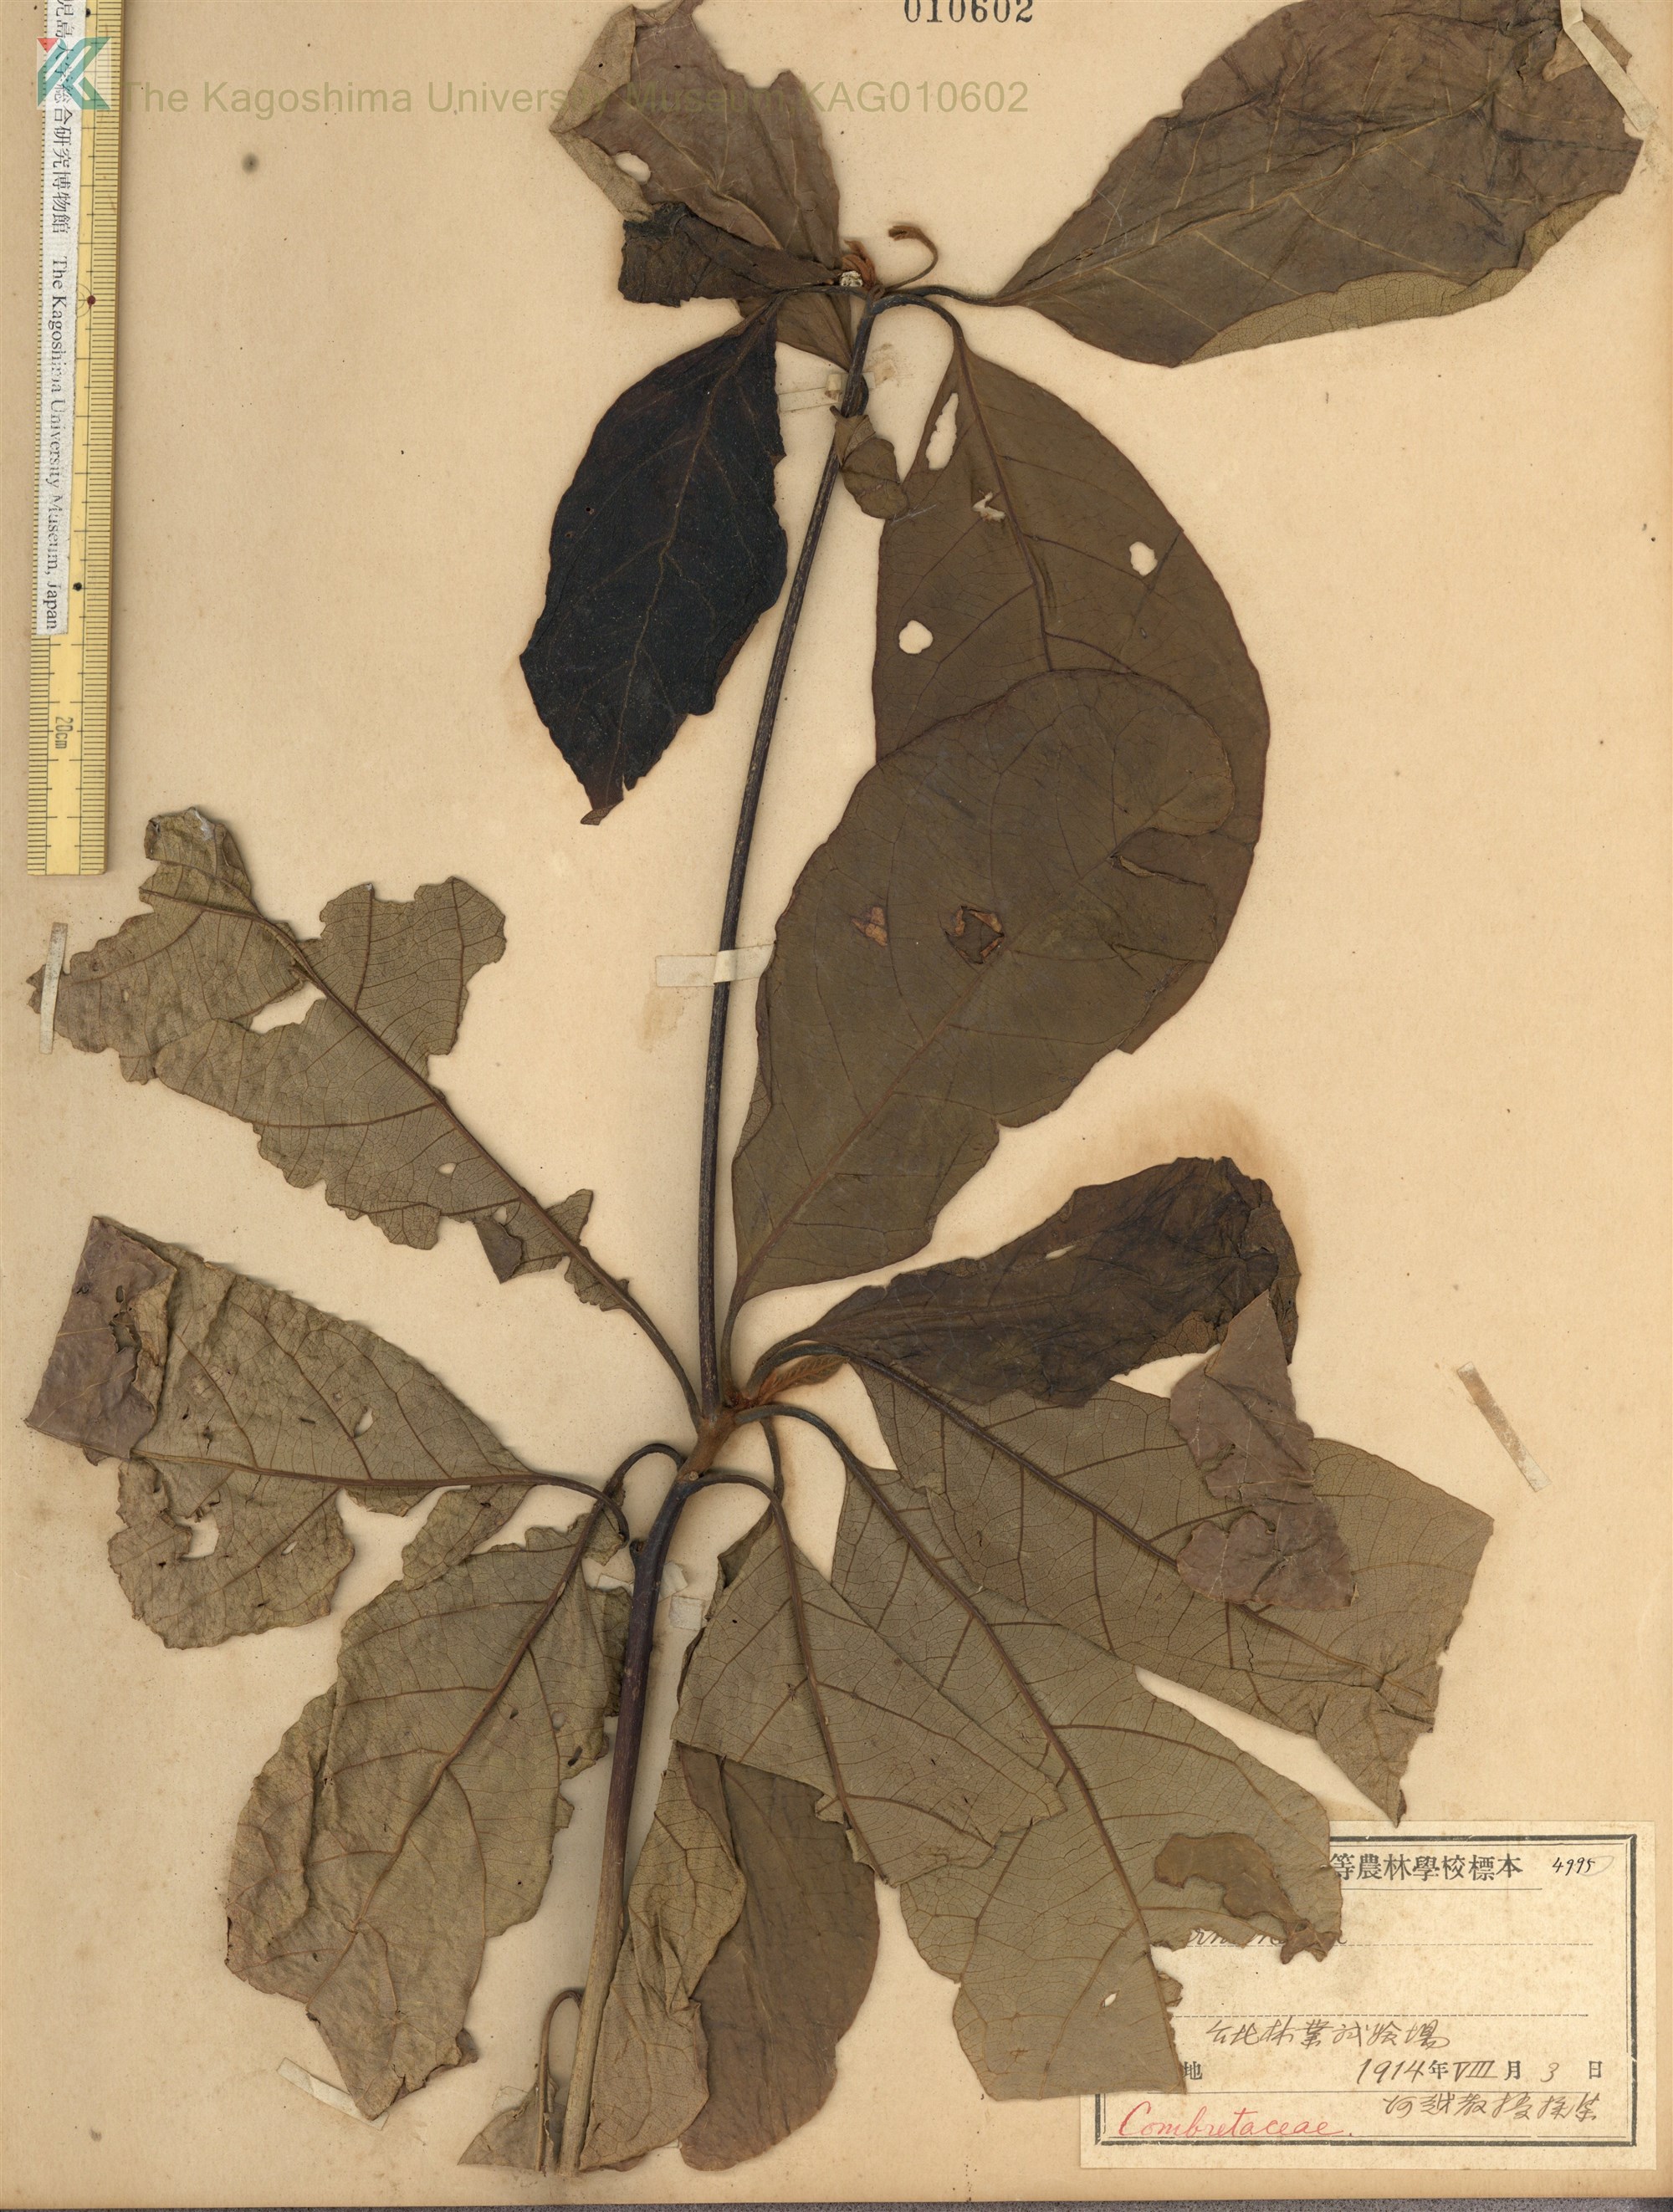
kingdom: Plantae
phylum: Tracheophyta
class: Magnoliopsida
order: Myrtales
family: Combretaceae
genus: Terminalia
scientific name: Terminalia
